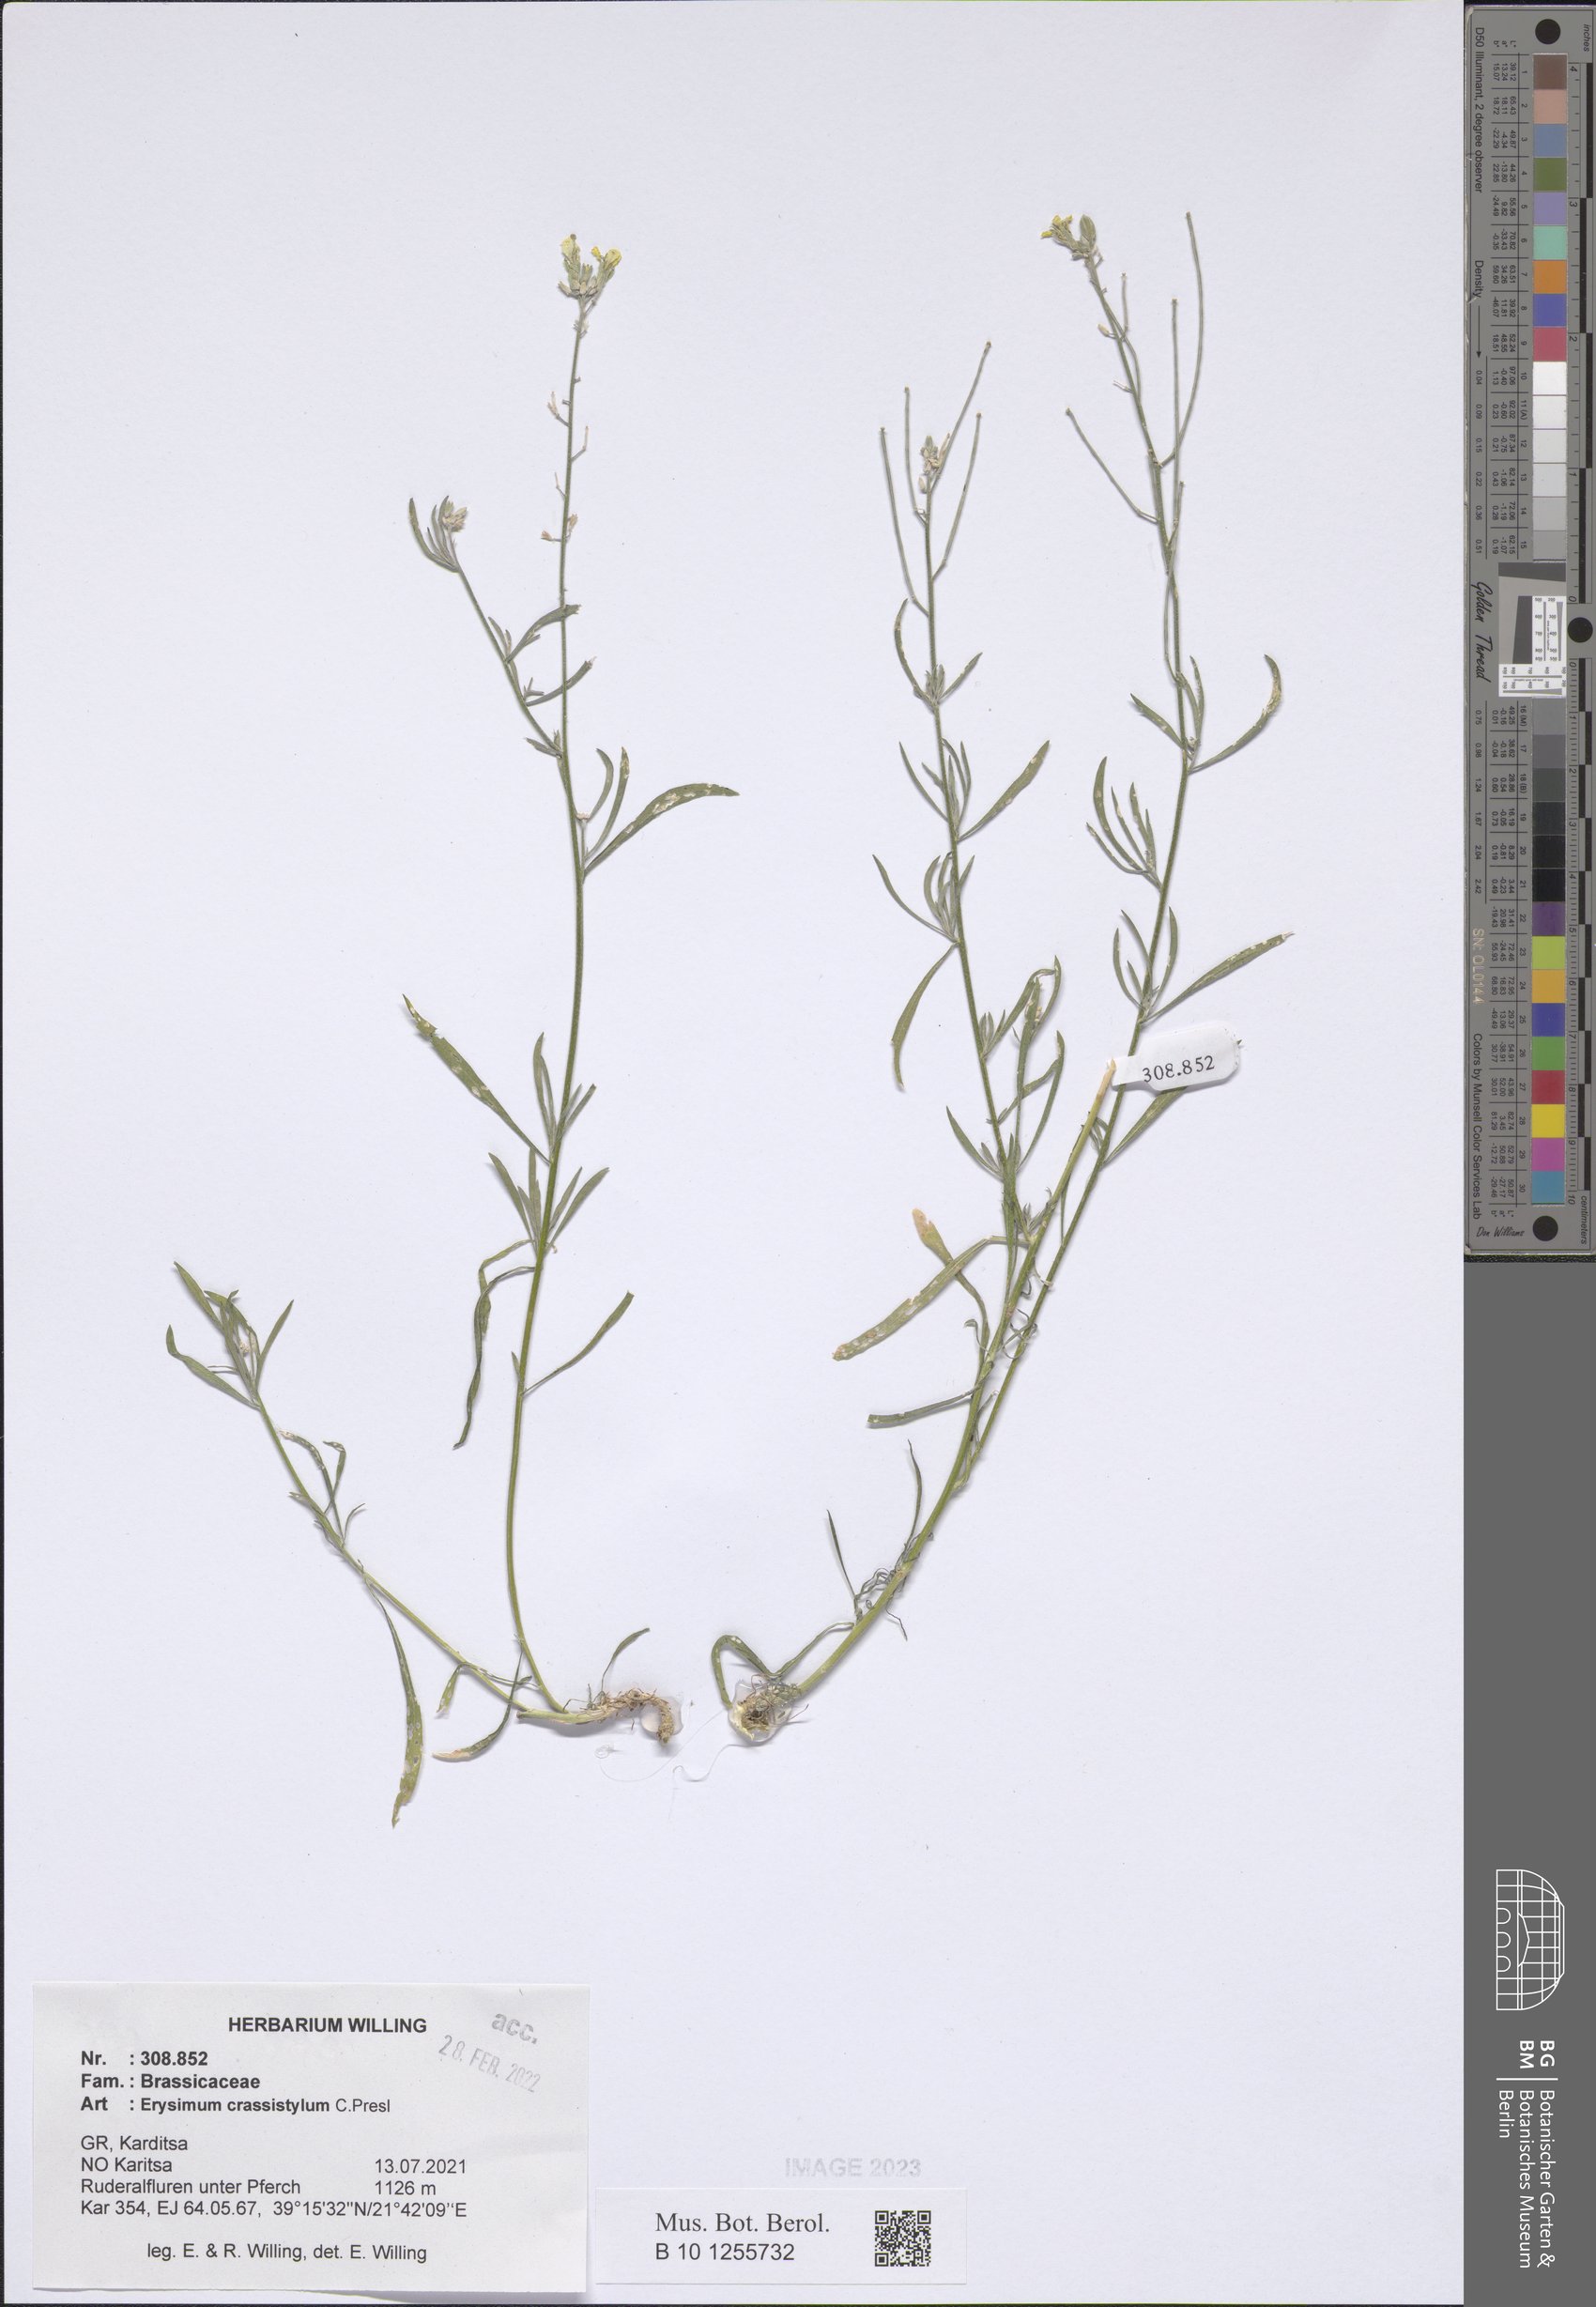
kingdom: Plantae
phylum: Tracheophyta
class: Magnoliopsida
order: Brassicales
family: Brassicaceae
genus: Erysimum
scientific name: Erysimum crassistylum
